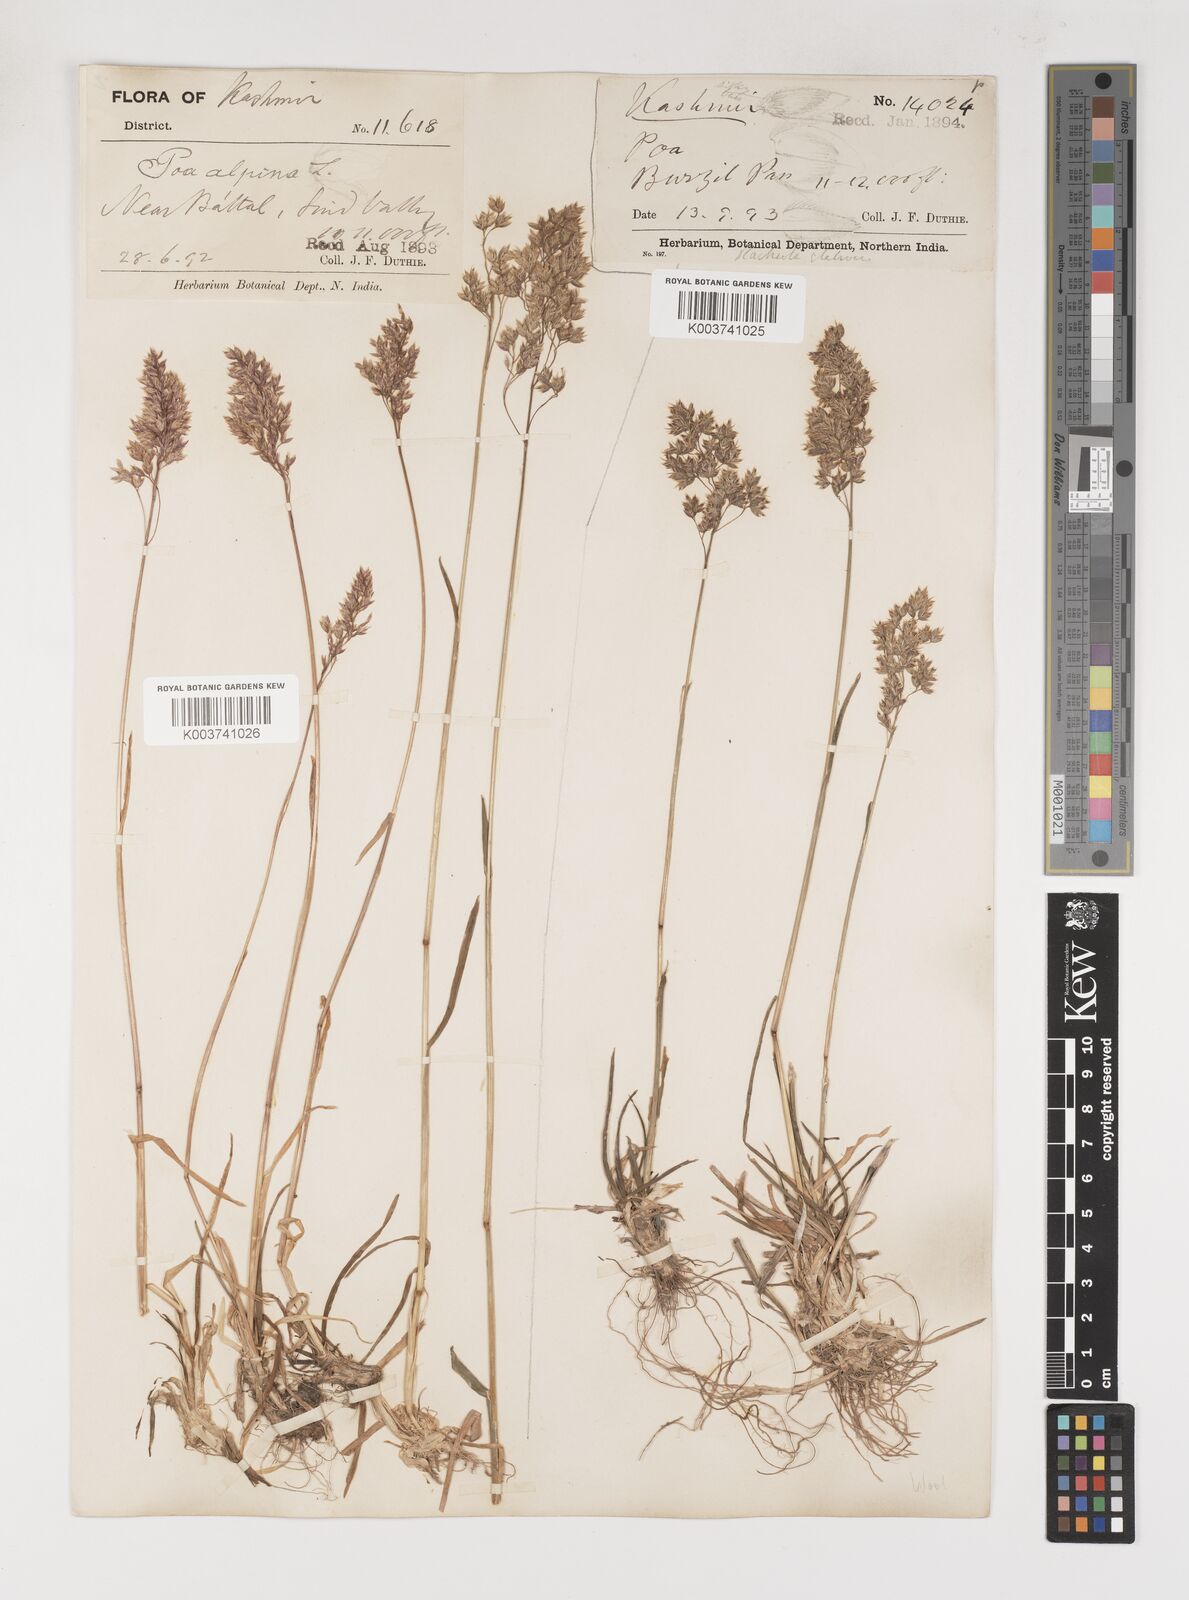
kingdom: Plantae
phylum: Tracheophyta
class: Liliopsida
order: Poales
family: Poaceae
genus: Poa
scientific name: Poa alpina
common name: Alpine bluegrass
